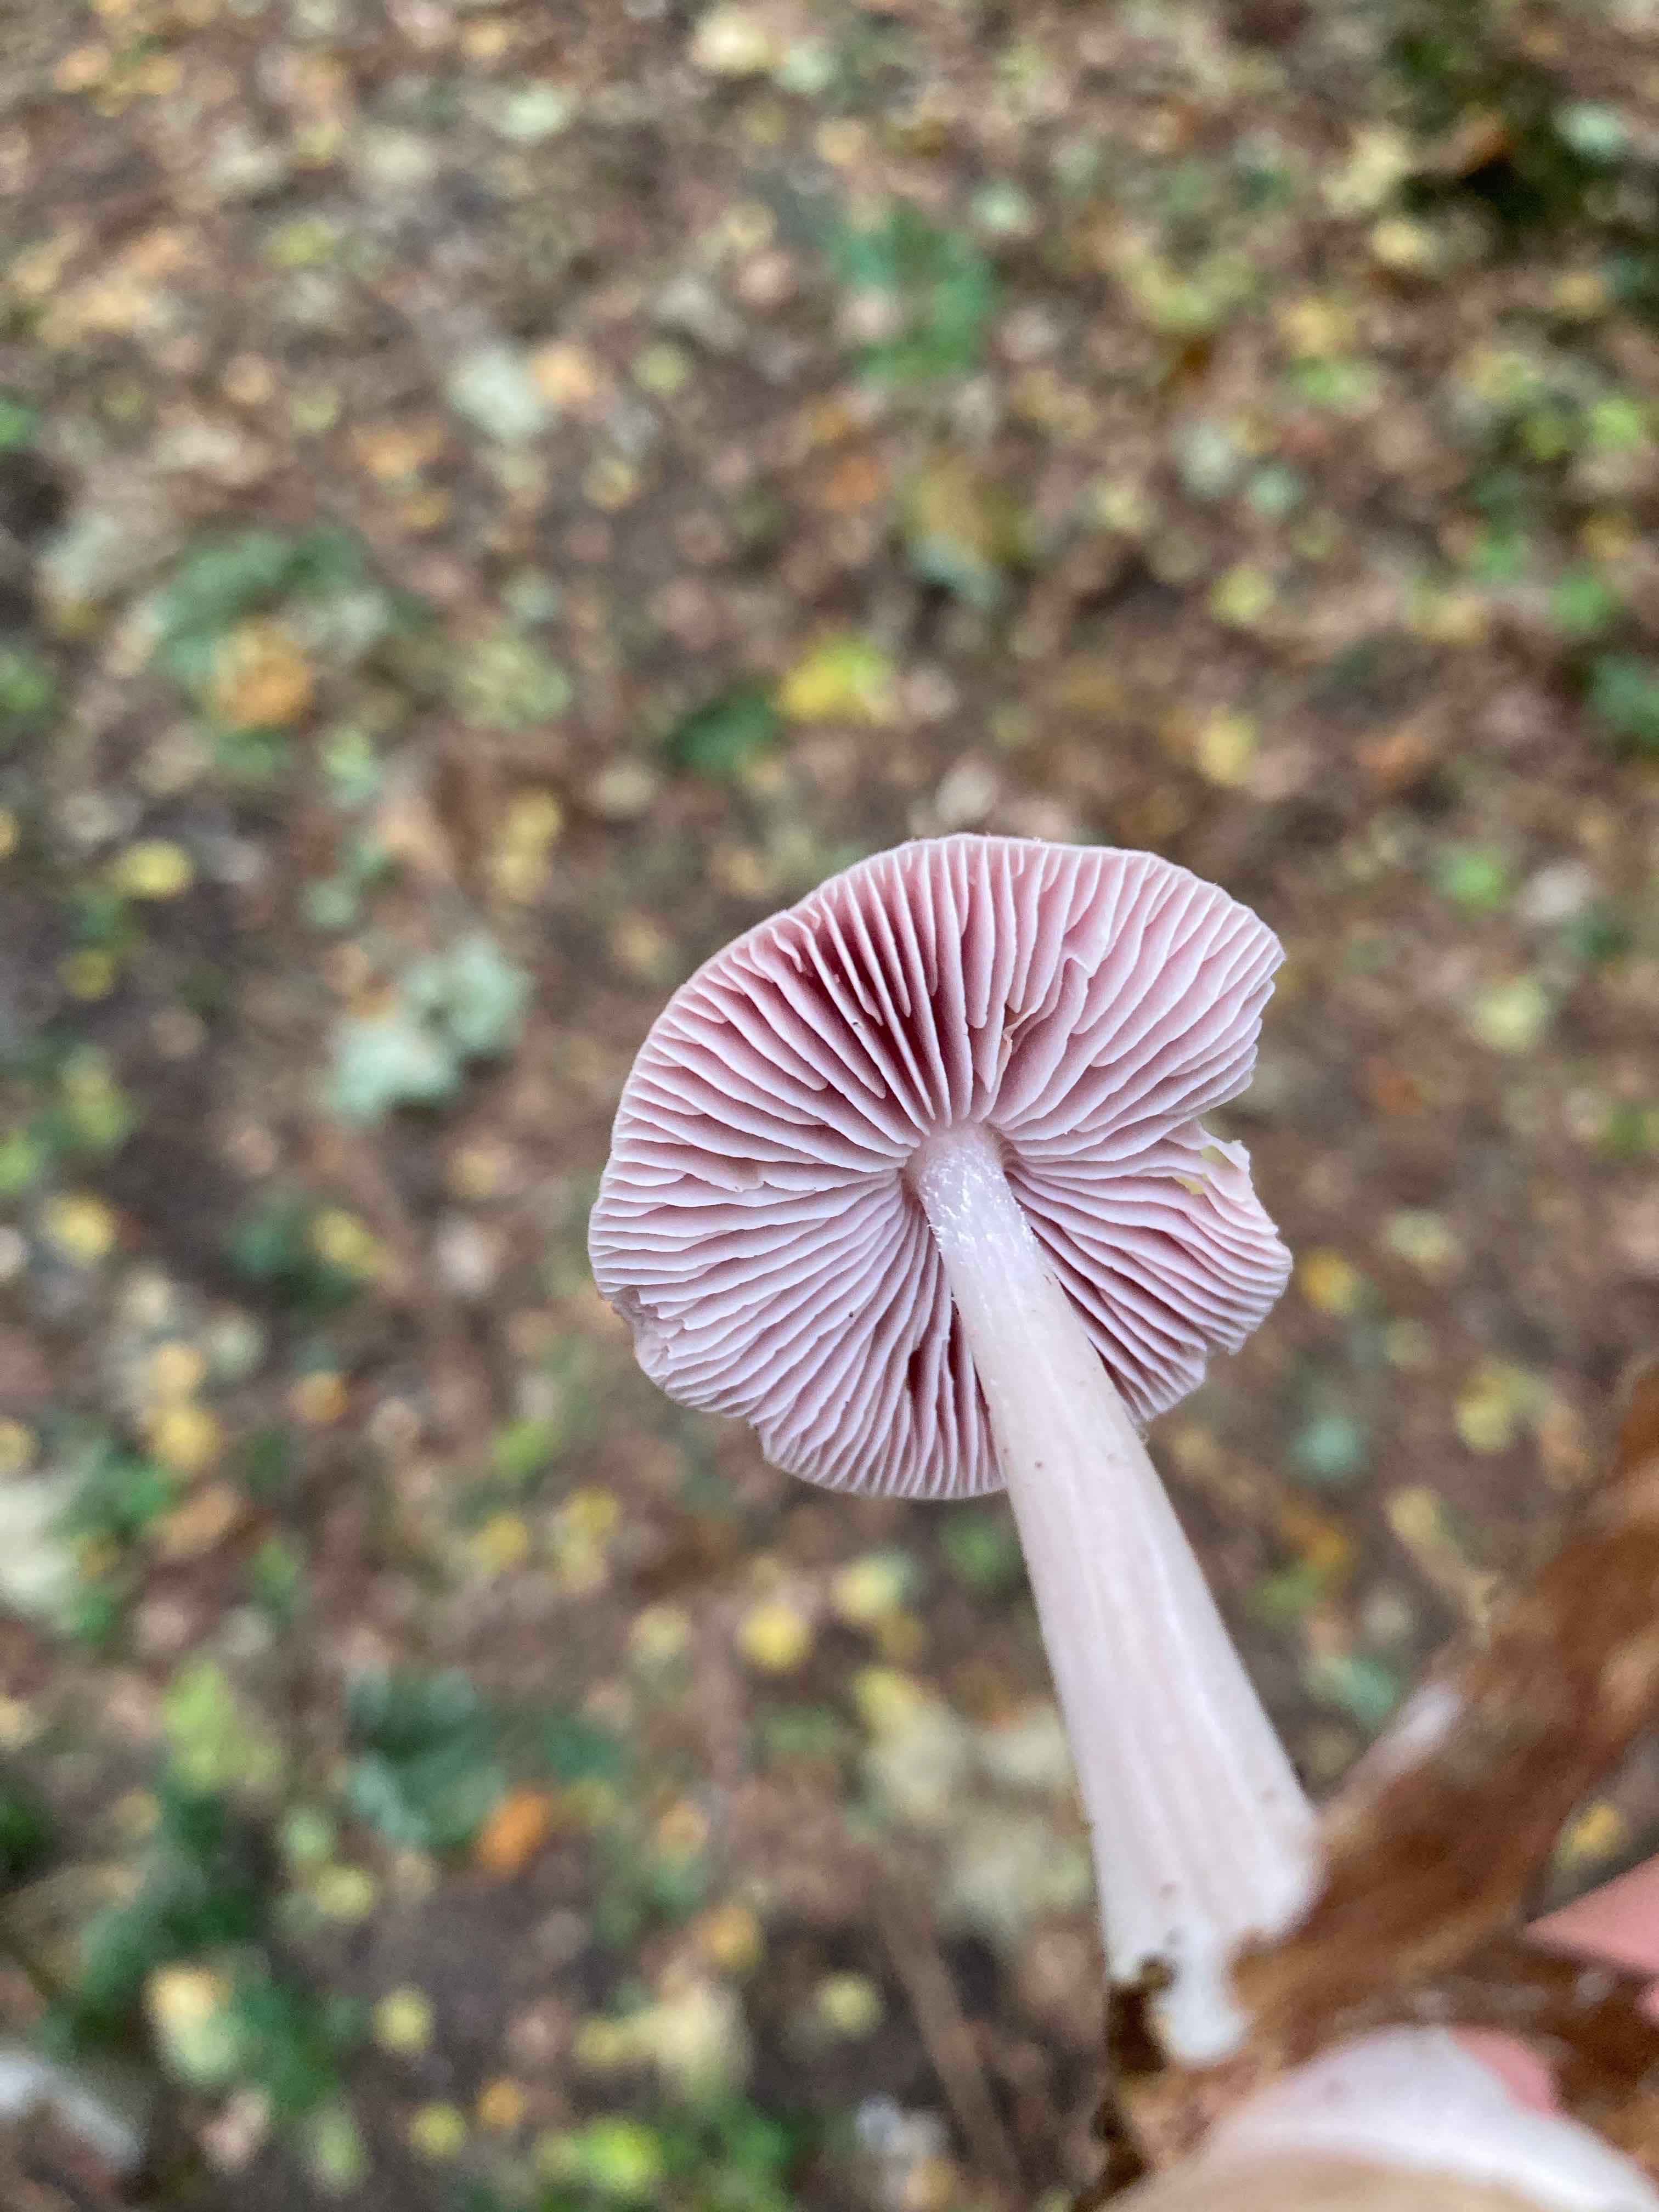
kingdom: Fungi
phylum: Basidiomycota
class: Agaricomycetes
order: Agaricales
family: Mycenaceae
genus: Mycena
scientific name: Mycena rosea
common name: rosa huesvamp
